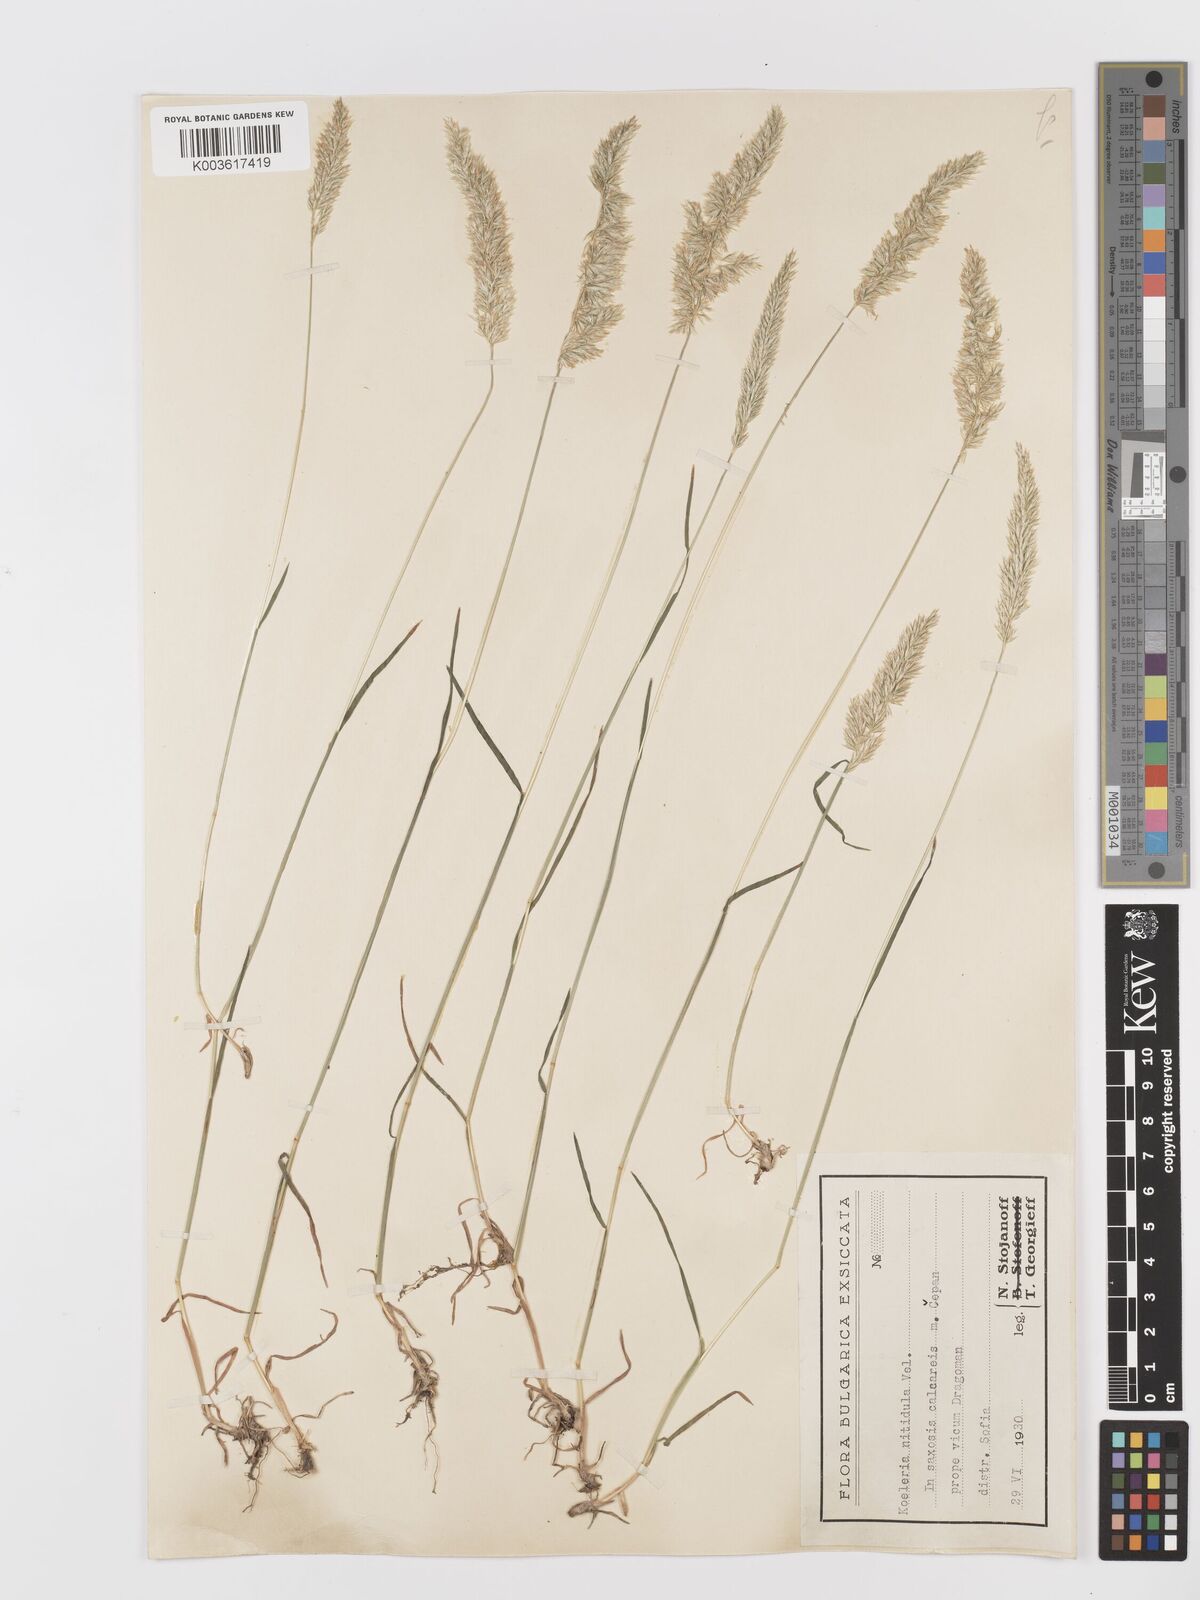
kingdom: Plantae
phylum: Tracheophyta
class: Liliopsida
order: Poales
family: Poaceae
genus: Koeleria
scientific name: Koeleria nitidula
